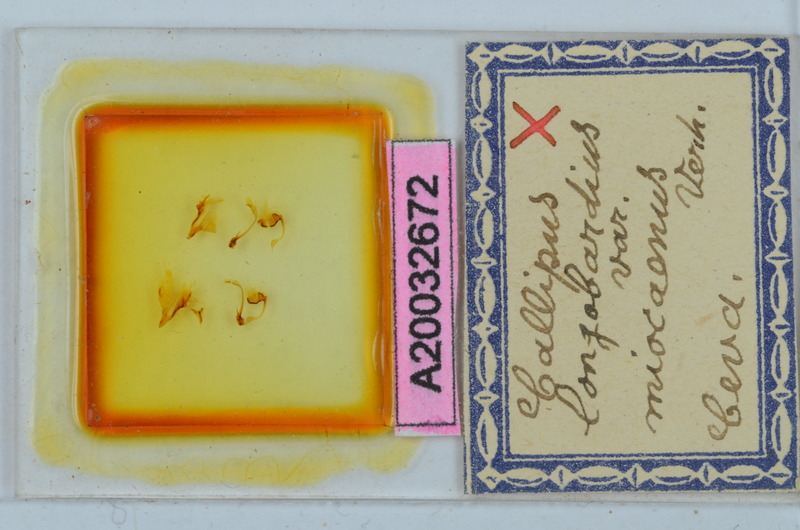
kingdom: Animalia
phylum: Arthropoda
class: Diplopoda
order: Callipodida
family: Callipodidae
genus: Callipus
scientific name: Callipus foetidissimus
